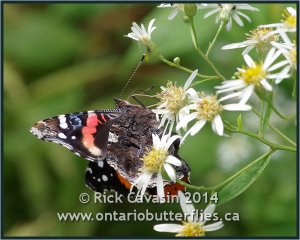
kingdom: Animalia
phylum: Arthropoda
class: Insecta
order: Lepidoptera
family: Nymphalidae
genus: Vanessa
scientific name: Vanessa atalanta
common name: Red Admiral
